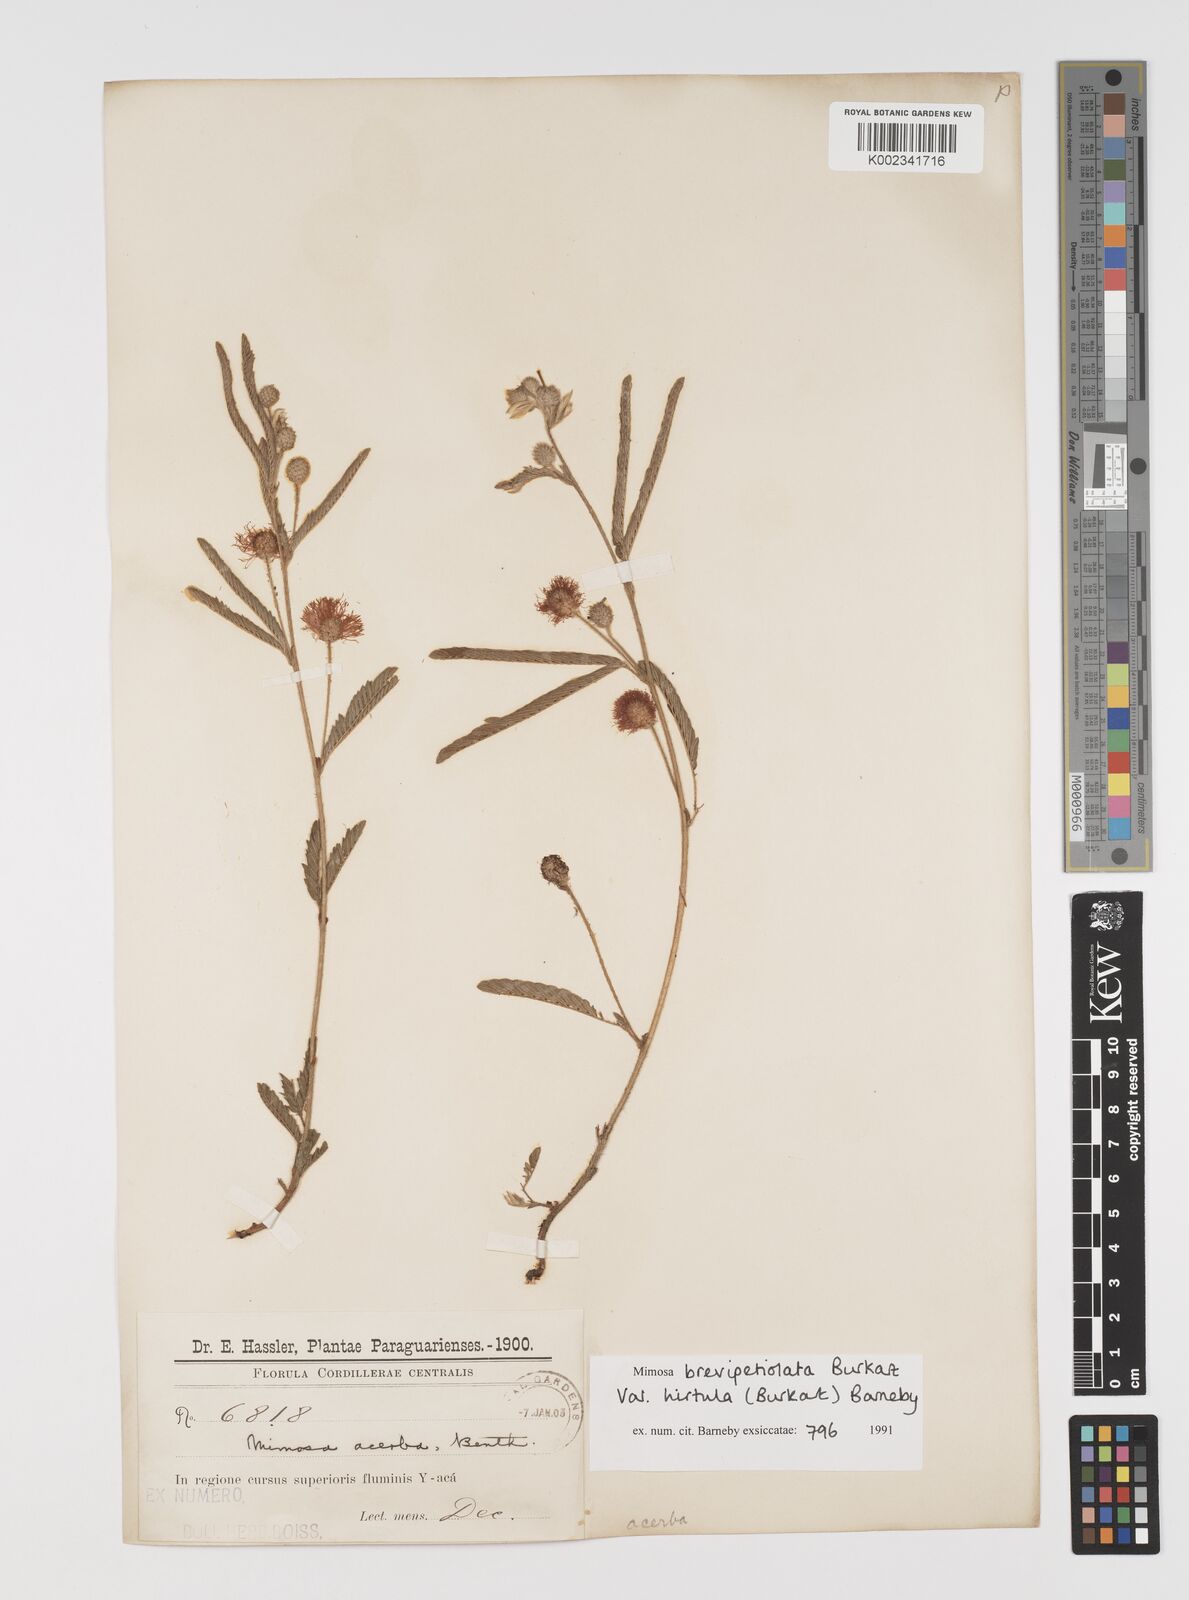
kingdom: Plantae
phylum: Tracheophyta
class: Magnoliopsida
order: Fabales
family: Fabaceae
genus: Mimosa
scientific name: Mimosa brevipetiolata
